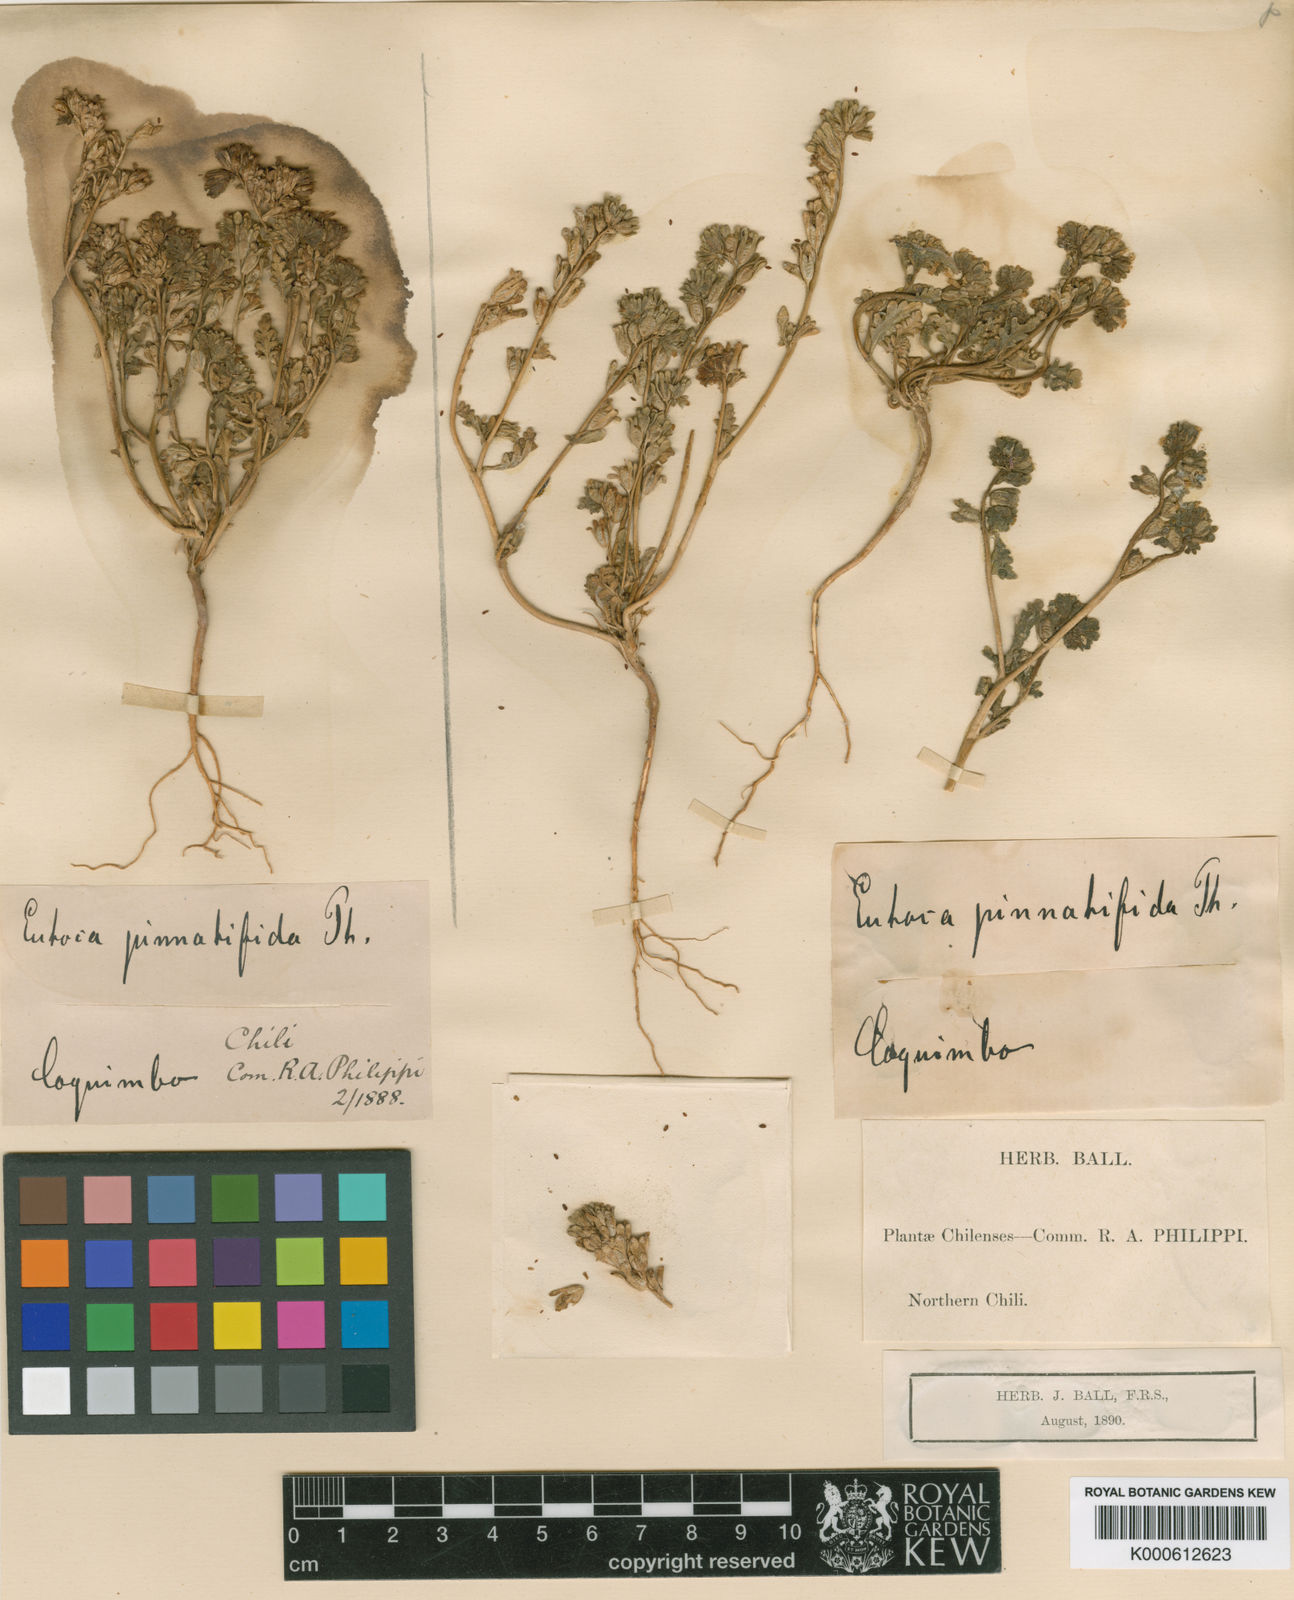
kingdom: Plantae
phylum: Tracheophyta
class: Magnoliopsida
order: Boraginales
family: Hydrophyllaceae
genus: Phacelia
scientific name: Phacelia cumingii
